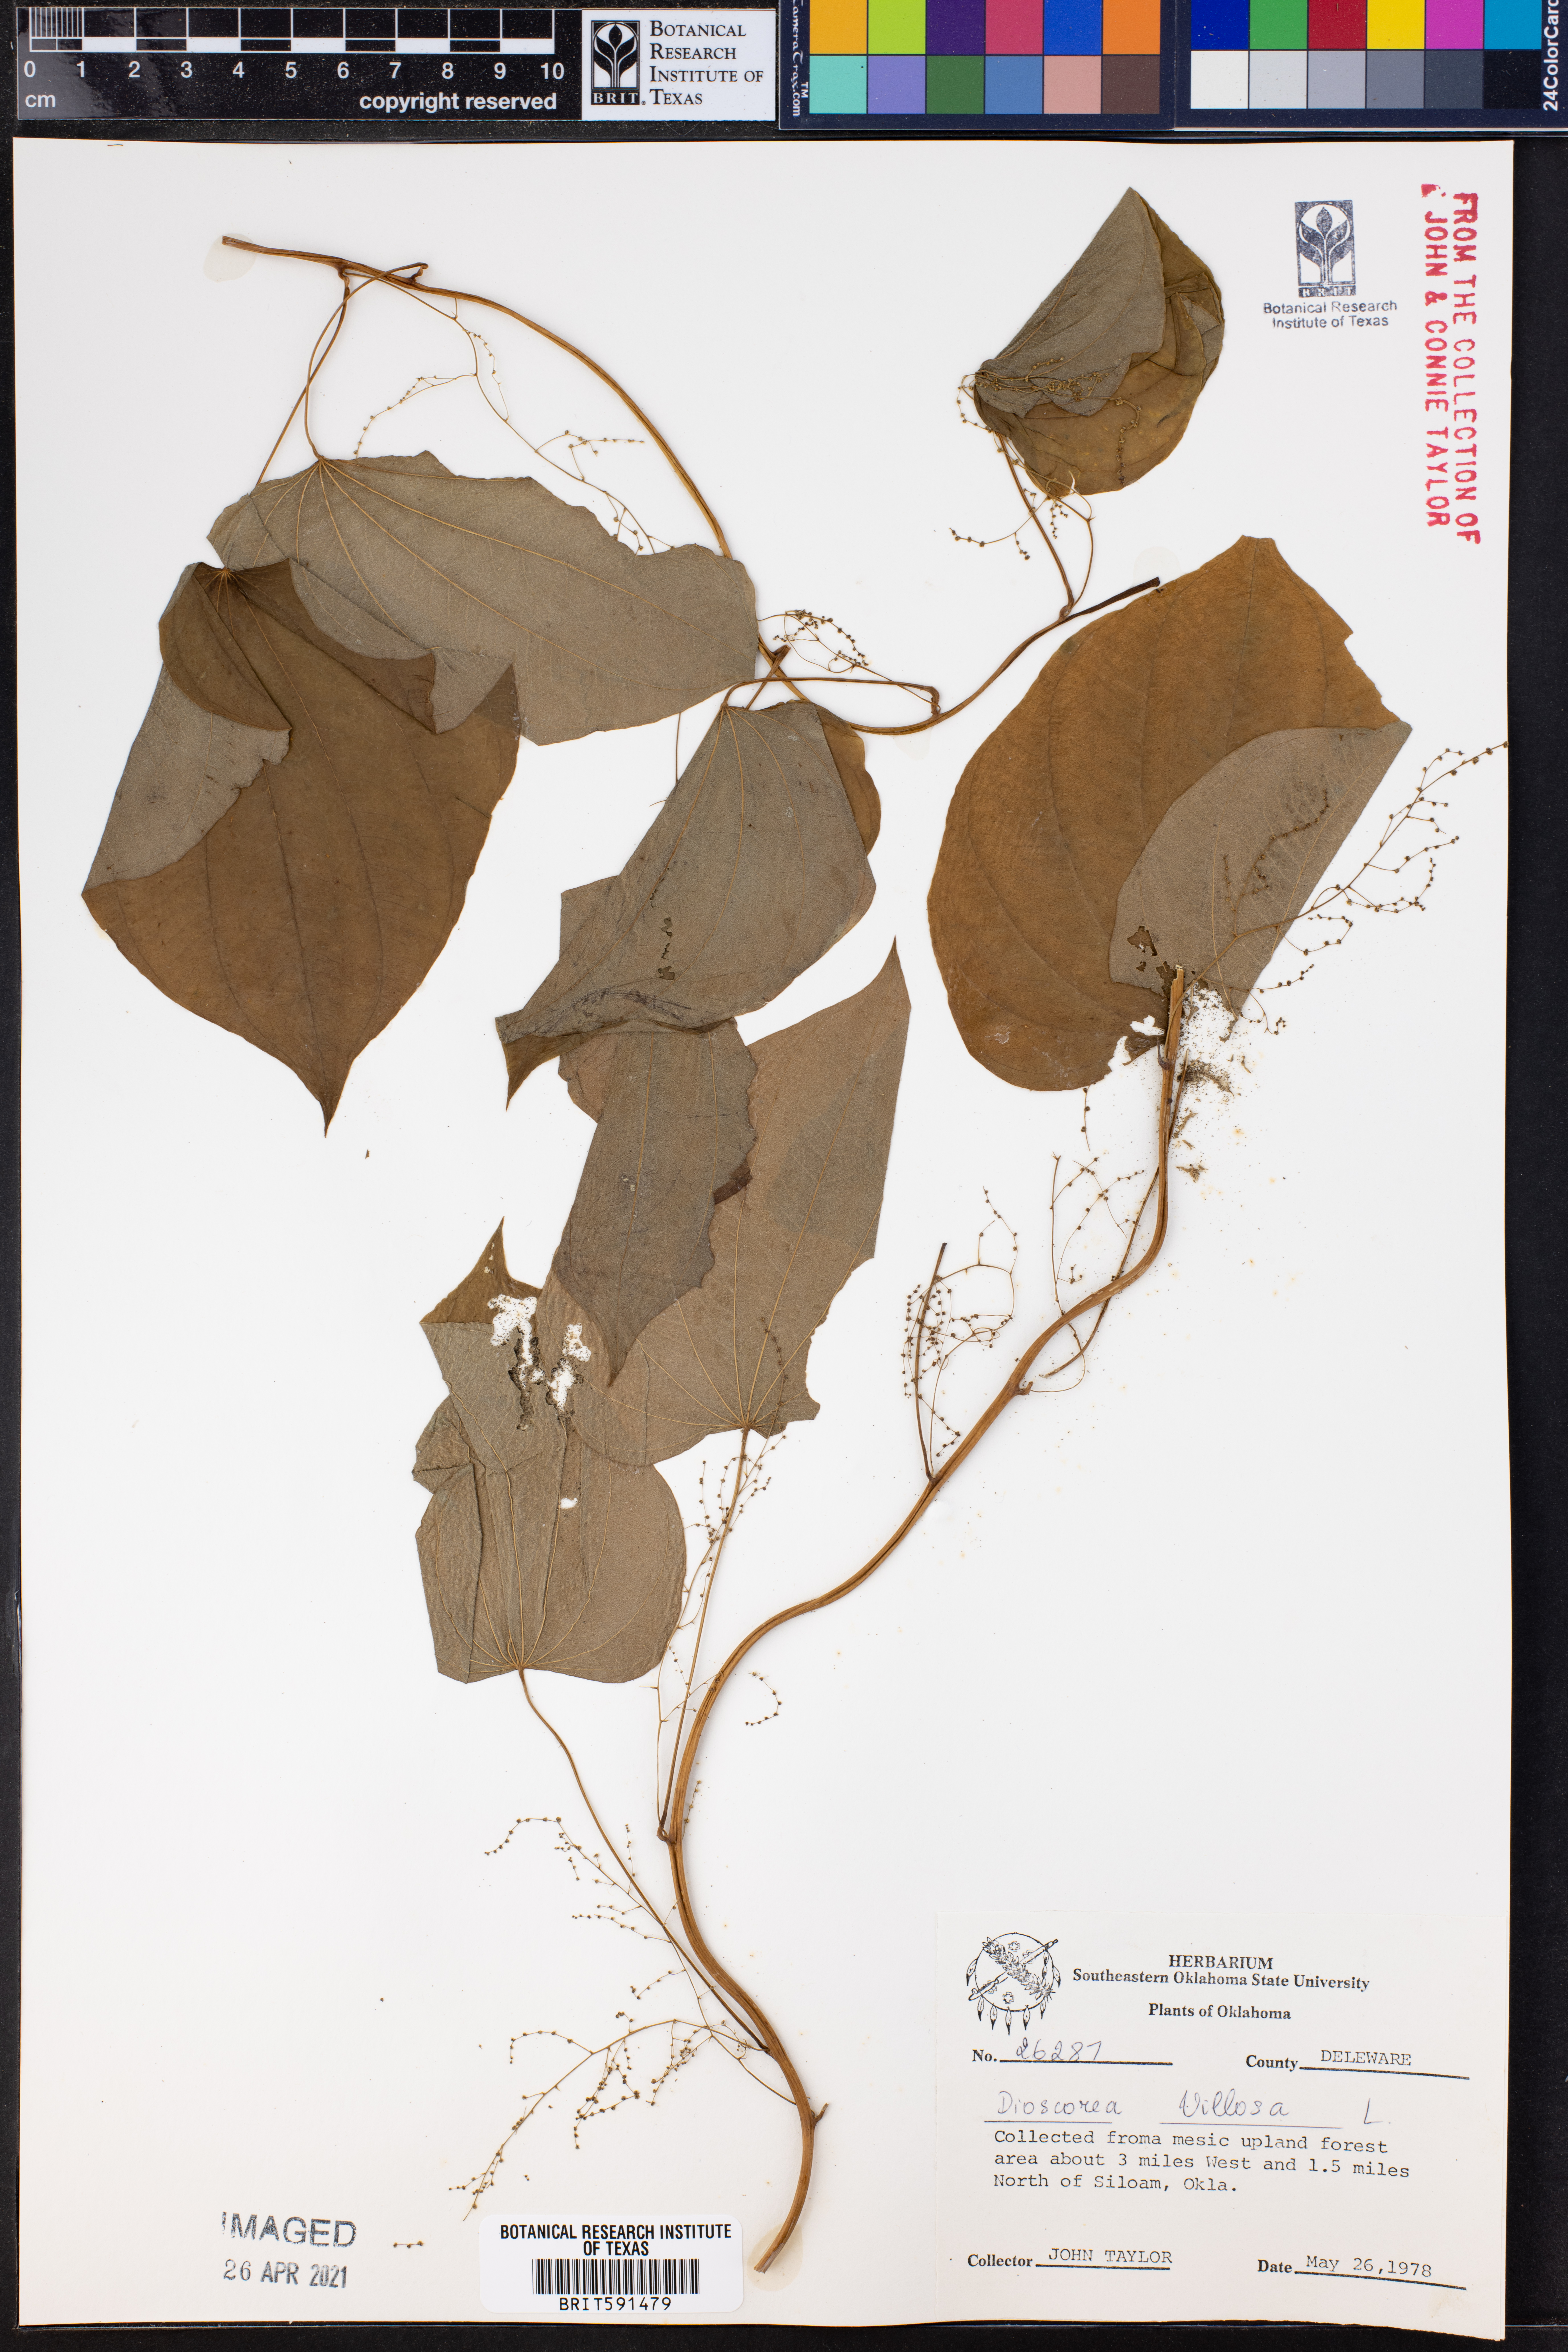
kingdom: Plantae
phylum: Tracheophyta
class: Liliopsida
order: Dioscoreales
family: Dioscoreaceae
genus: Dioscorea
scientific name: Dioscorea villosa
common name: Wild yam
